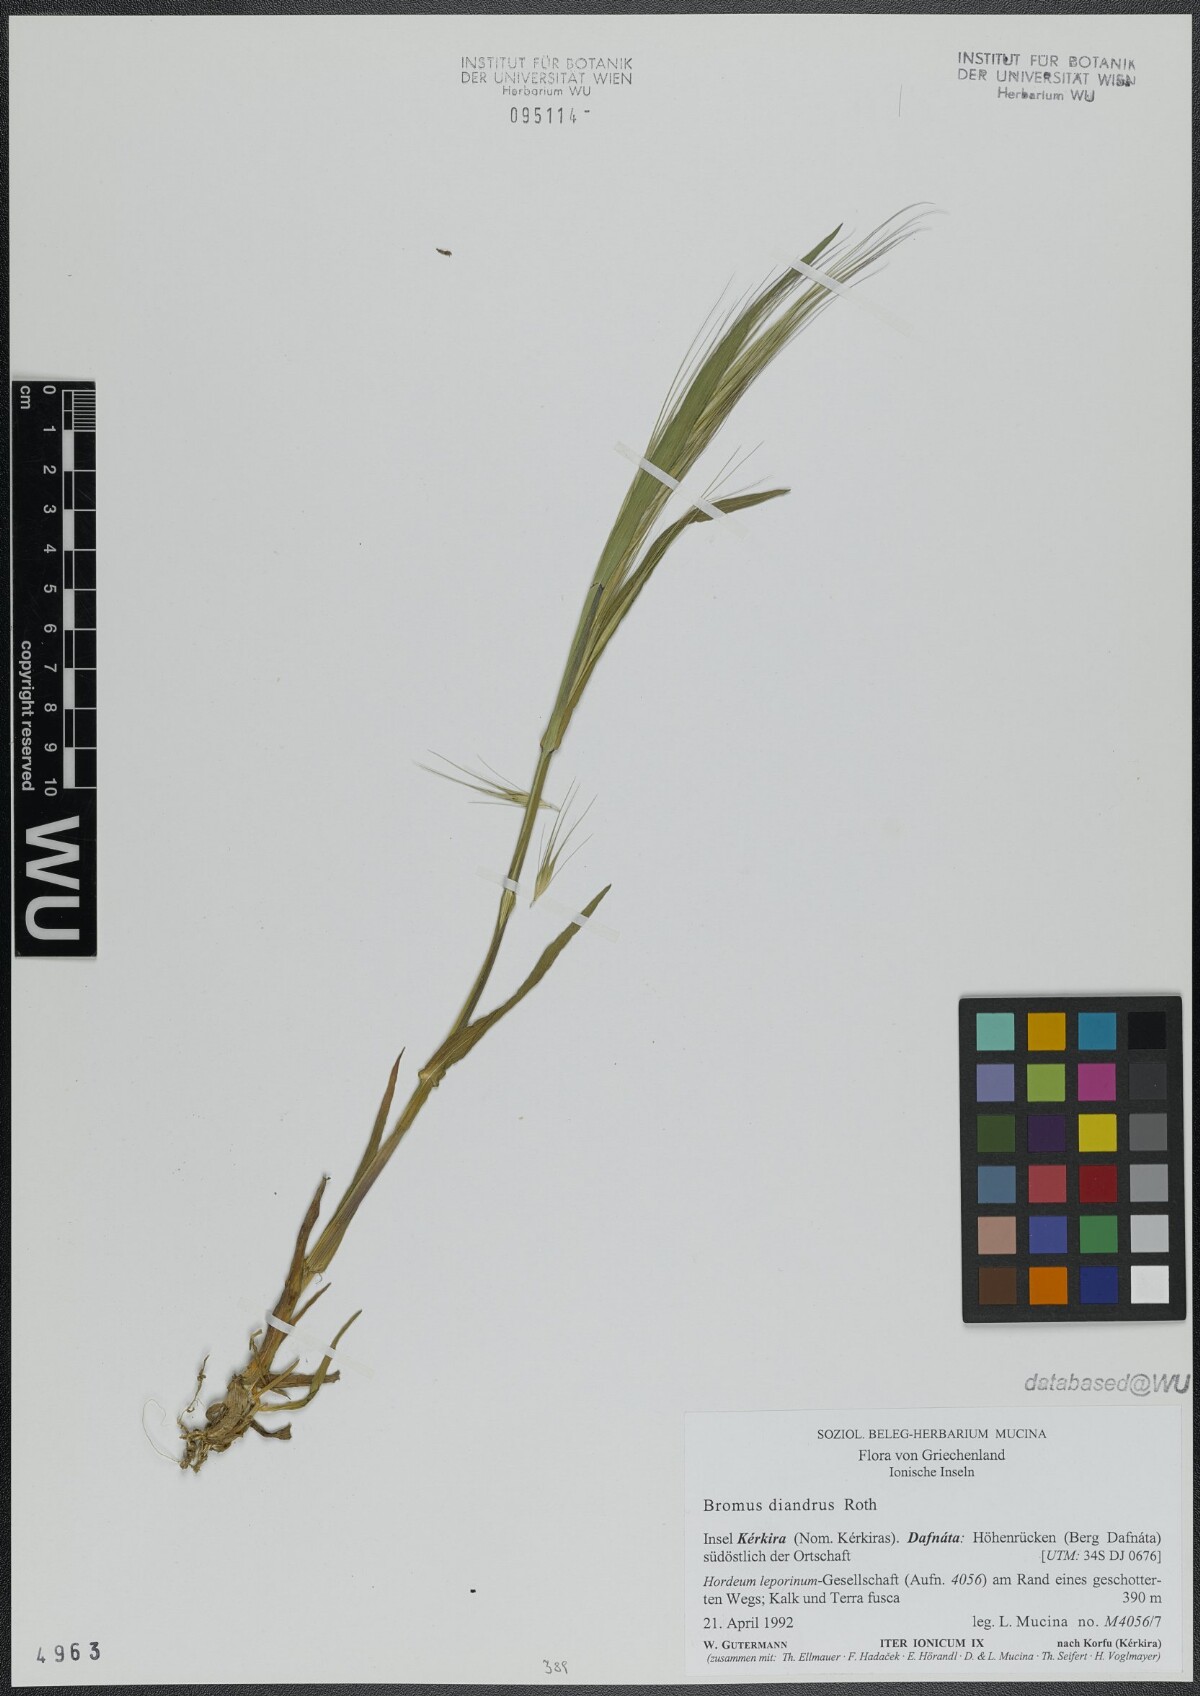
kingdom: Plantae
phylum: Tracheophyta
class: Liliopsida
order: Poales
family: Poaceae
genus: Bromus
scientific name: Bromus diandrus
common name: Ripgut brome
